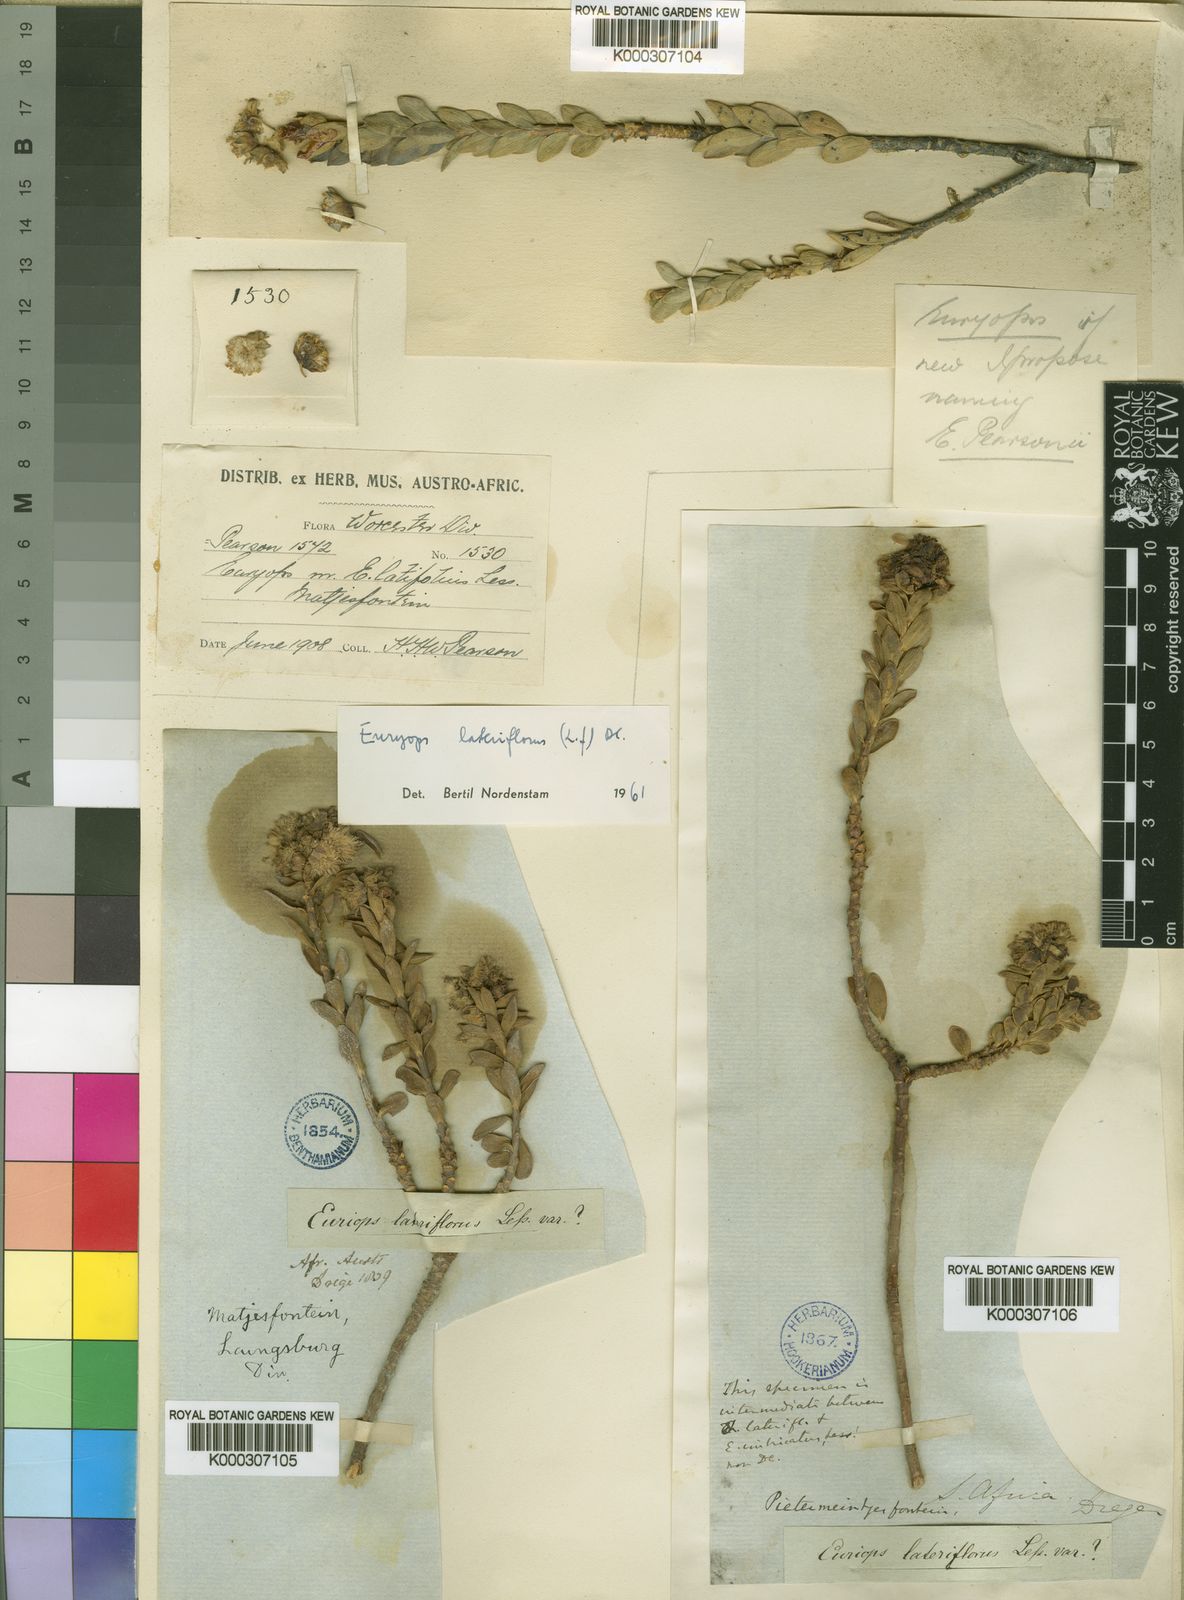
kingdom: Plantae
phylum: Tracheophyta
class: Magnoliopsida
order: Asterales
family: Asteraceae
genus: Euryops
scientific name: Euryops
